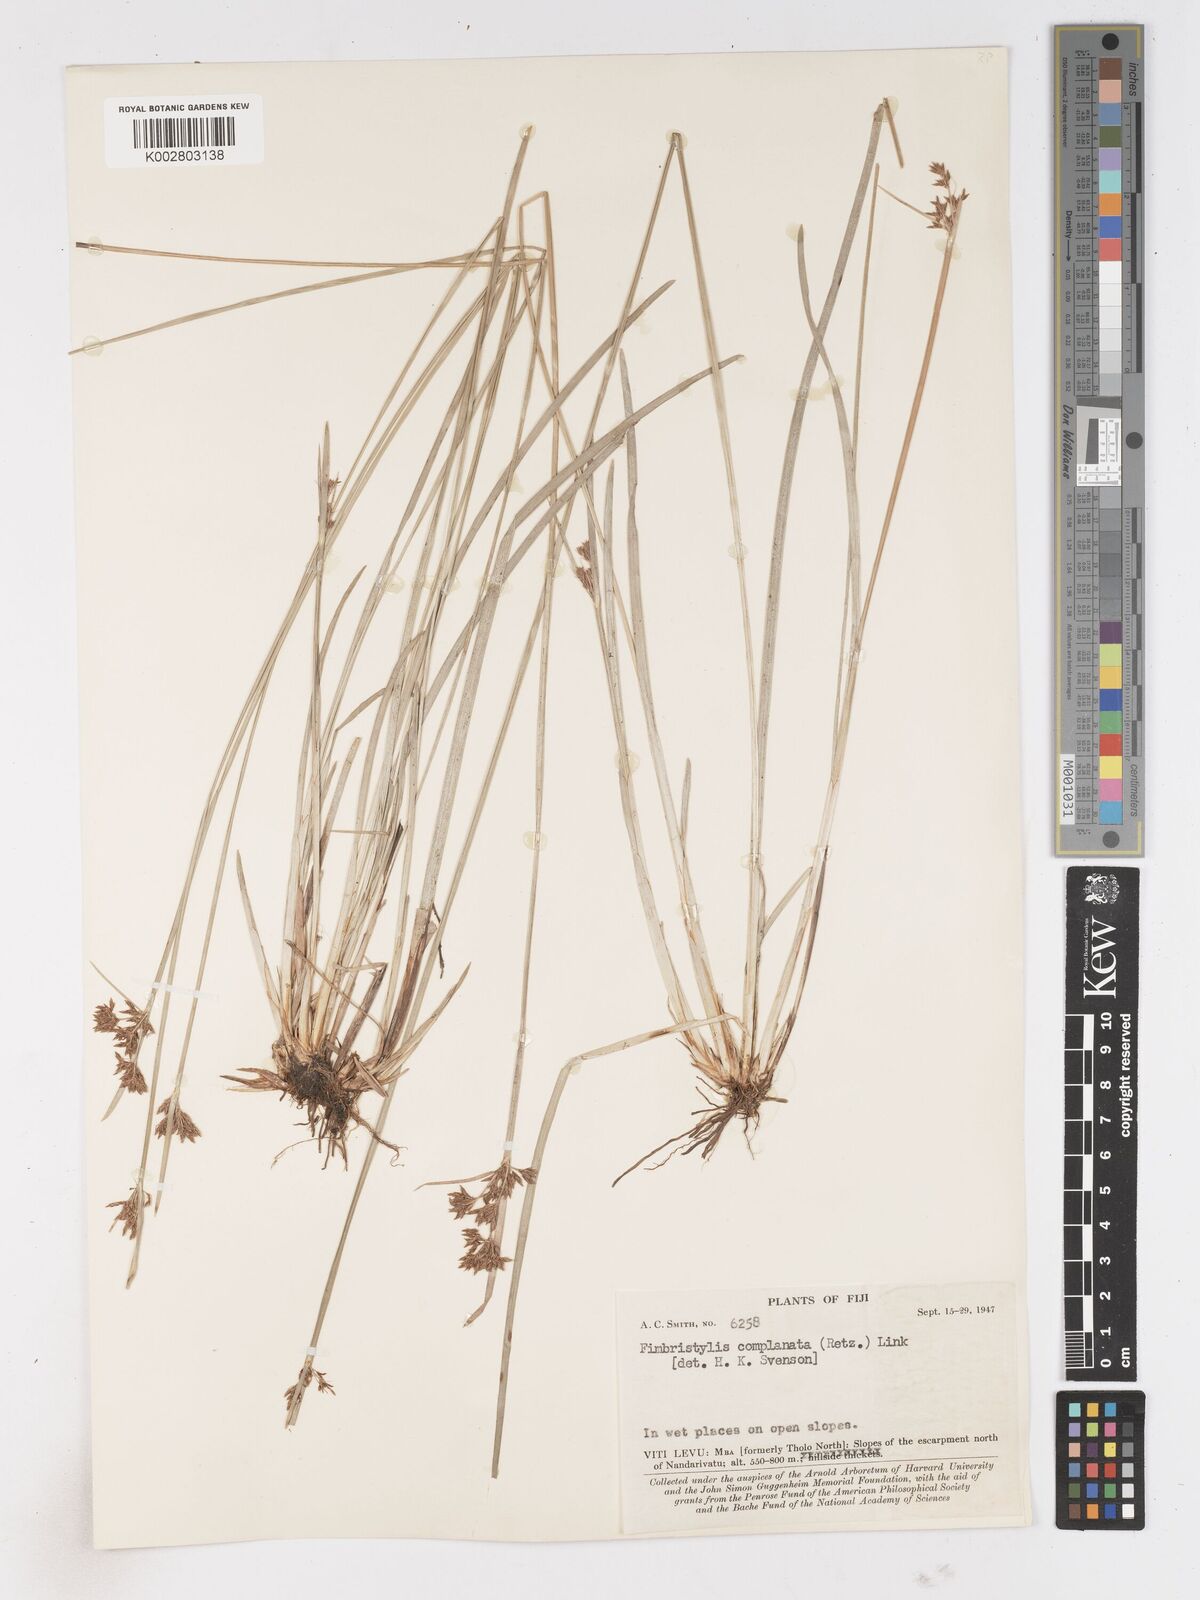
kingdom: Plantae
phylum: Tracheophyta
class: Liliopsida
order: Poales
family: Cyperaceae
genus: Fimbristylis
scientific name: Fimbristylis complanata
